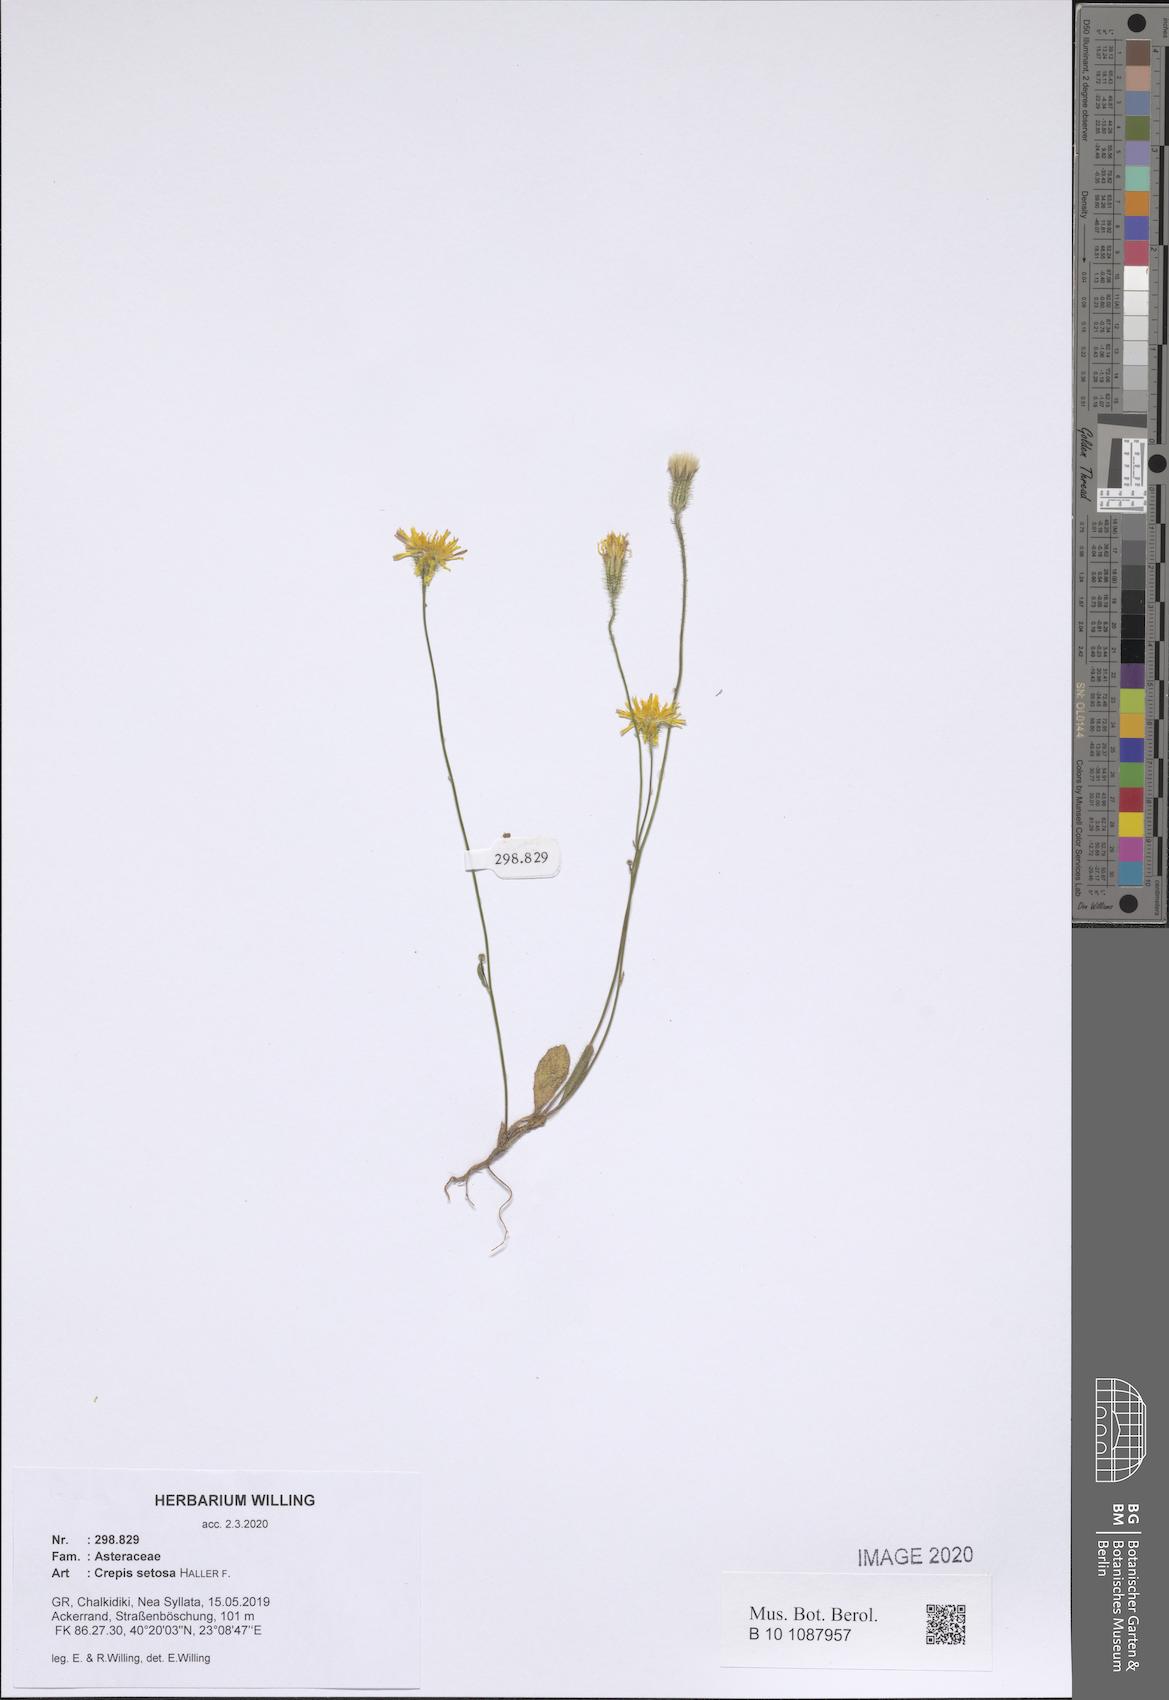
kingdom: Plantae
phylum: Tracheophyta
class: Magnoliopsida
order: Asterales
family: Asteraceae
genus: Crepis
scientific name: Crepis setosa
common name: Bristly hawk's-beard
